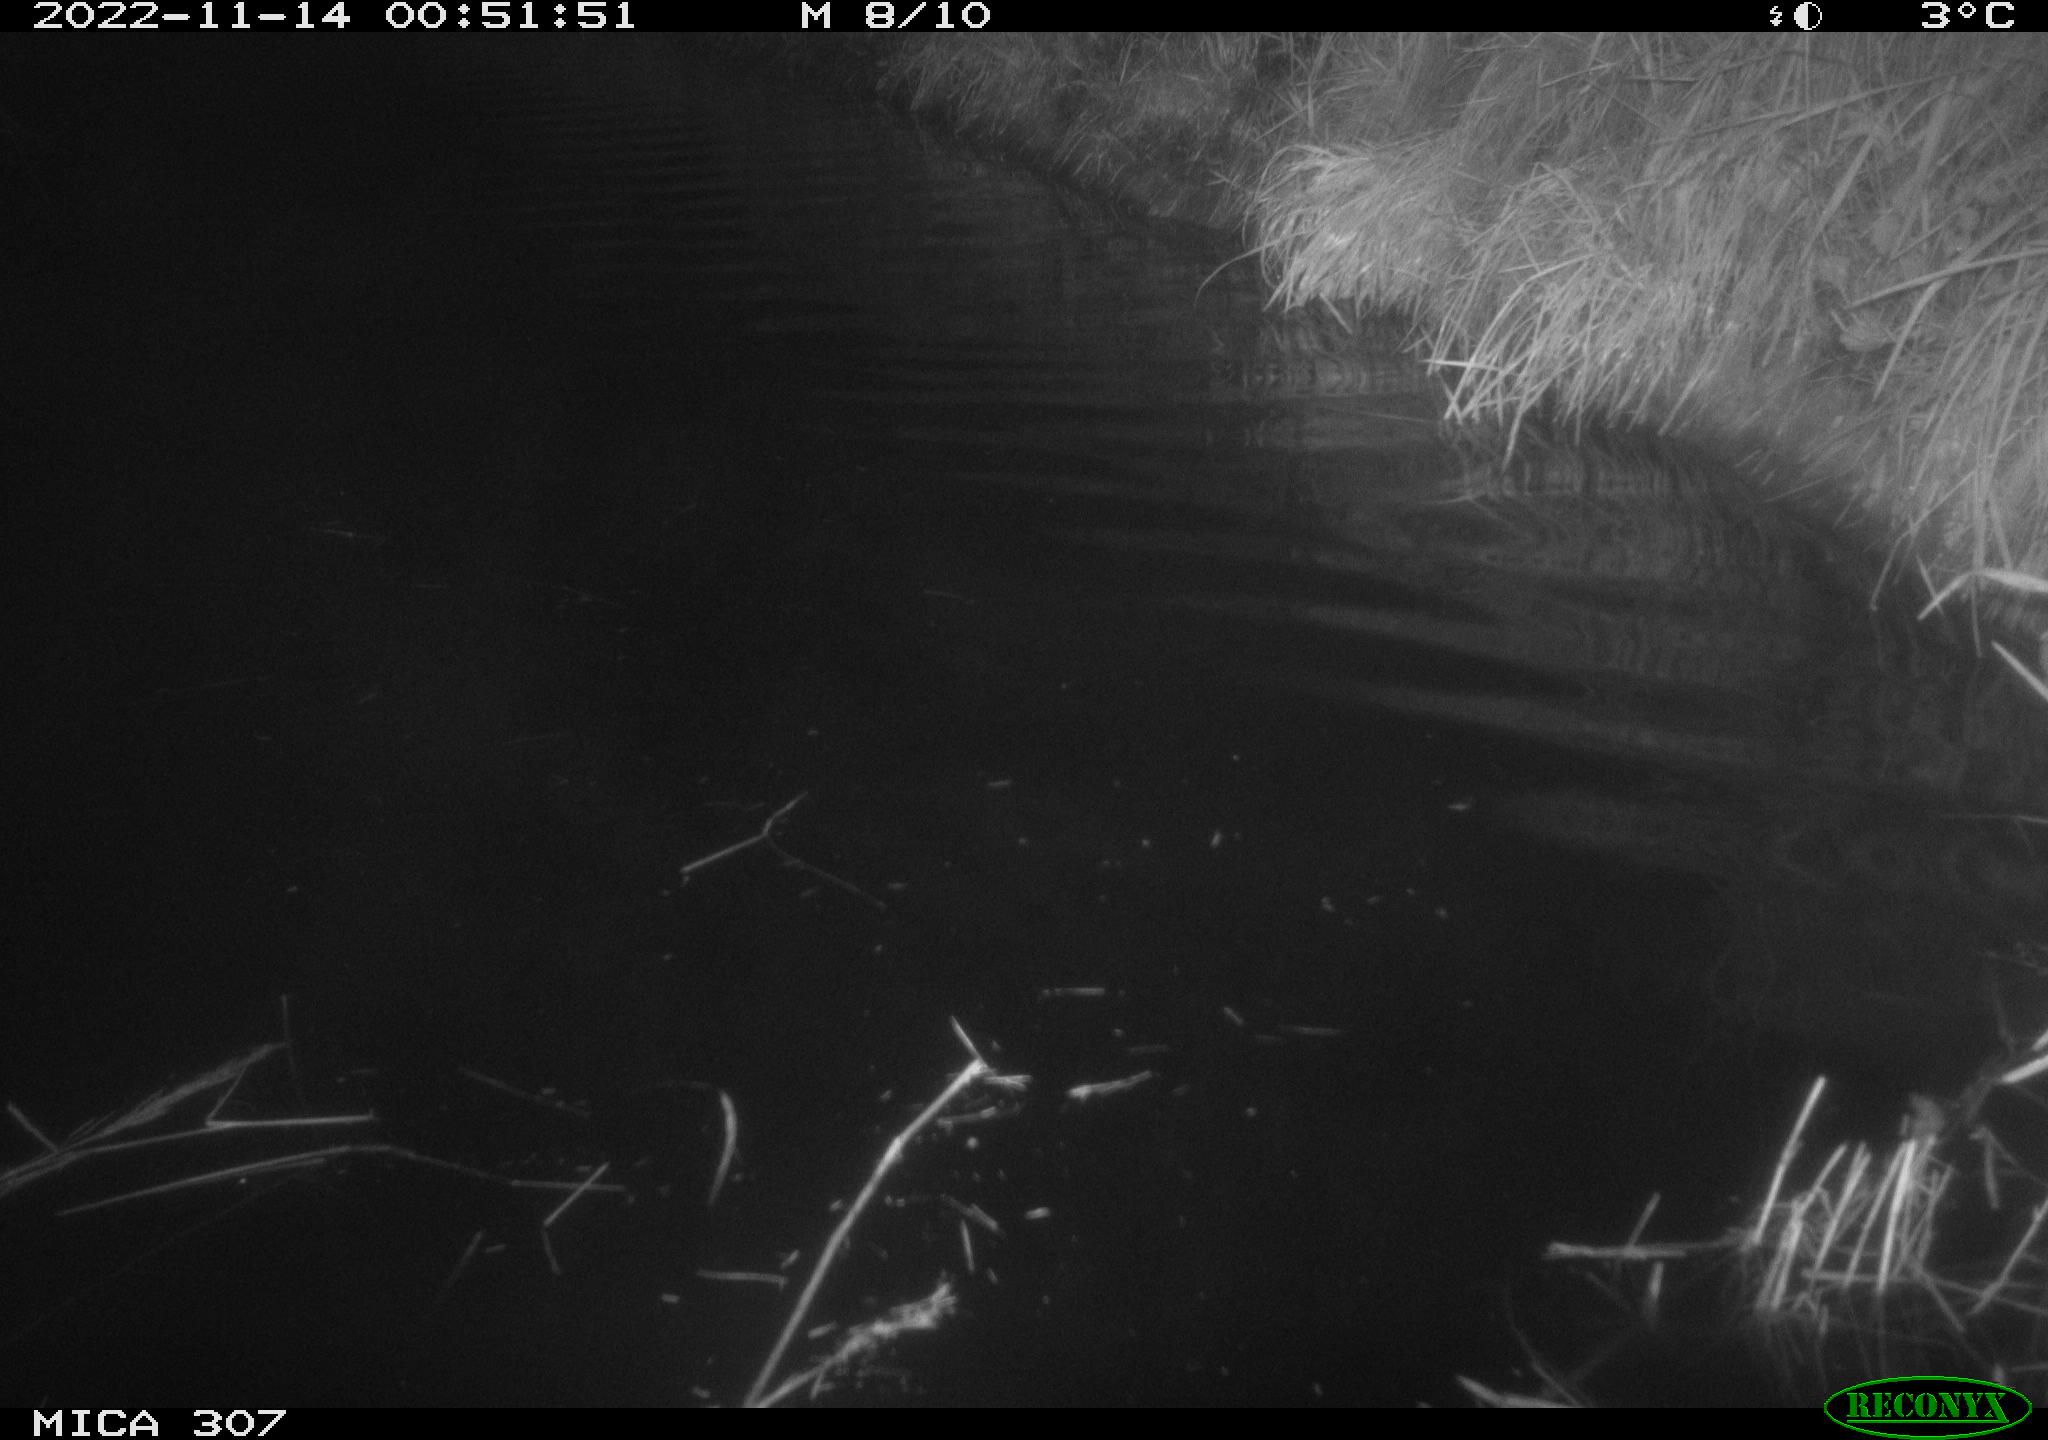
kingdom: Animalia
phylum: Chordata
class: Aves
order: Anseriformes
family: Anatidae
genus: Anas
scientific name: Anas
